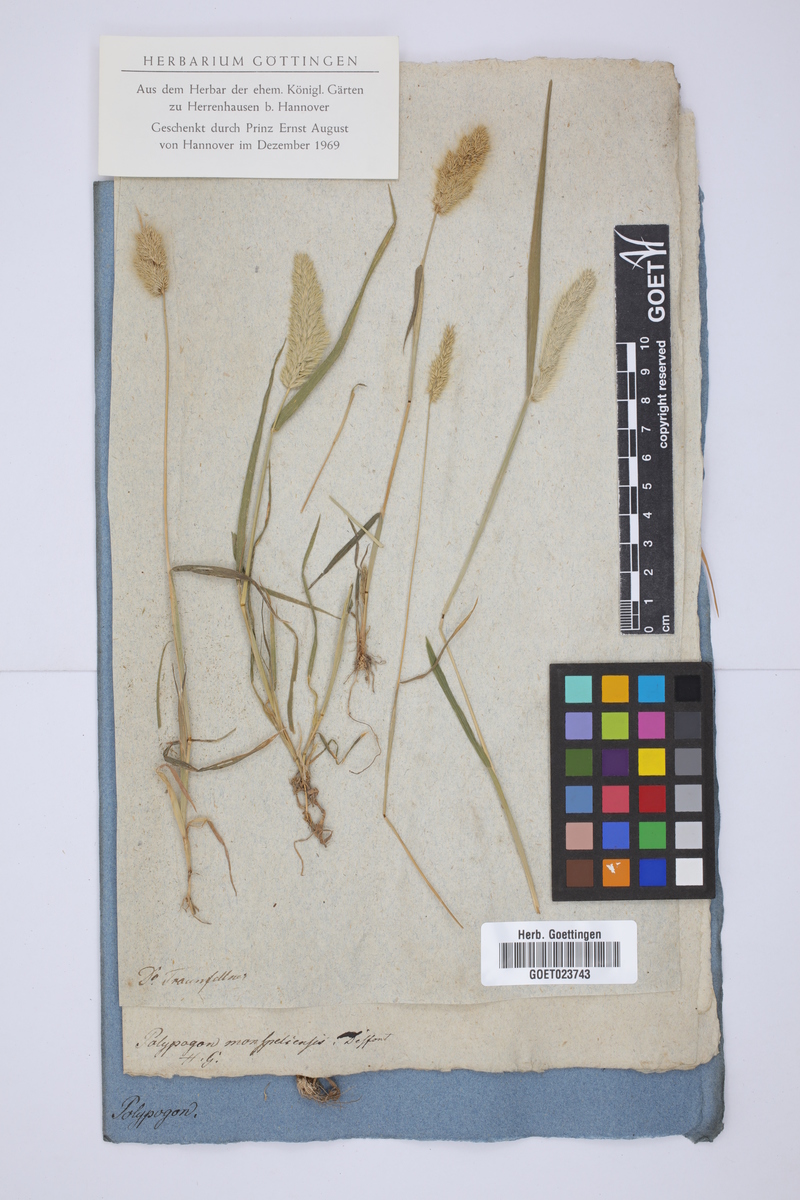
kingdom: Plantae
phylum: Tracheophyta
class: Liliopsida
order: Poales
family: Poaceae
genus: Polypogon
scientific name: Polypogon monspeliensis
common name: Annual rabbitsfoot grass
